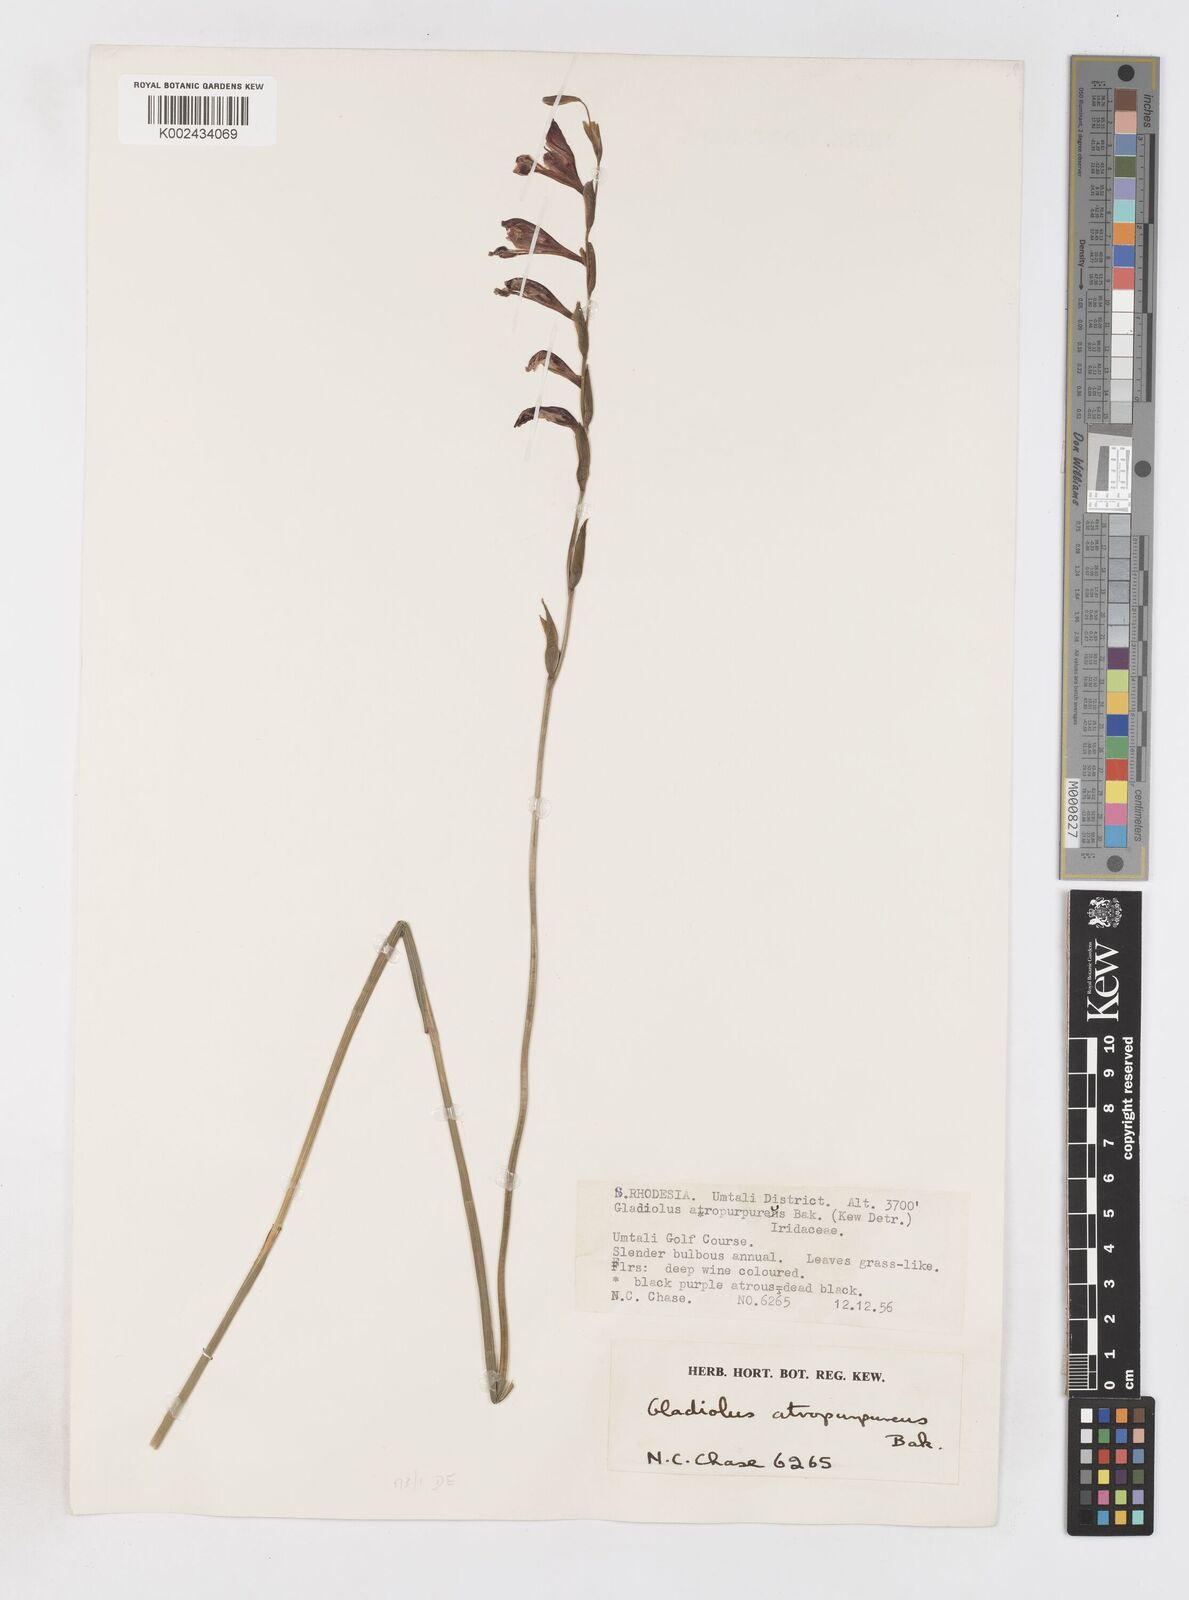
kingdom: Plantae
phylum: Tracheophyta
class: Liliopsida
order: Asparagales
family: Iridaceae
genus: Gladiolus
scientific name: Gladiolus atropurpureus
